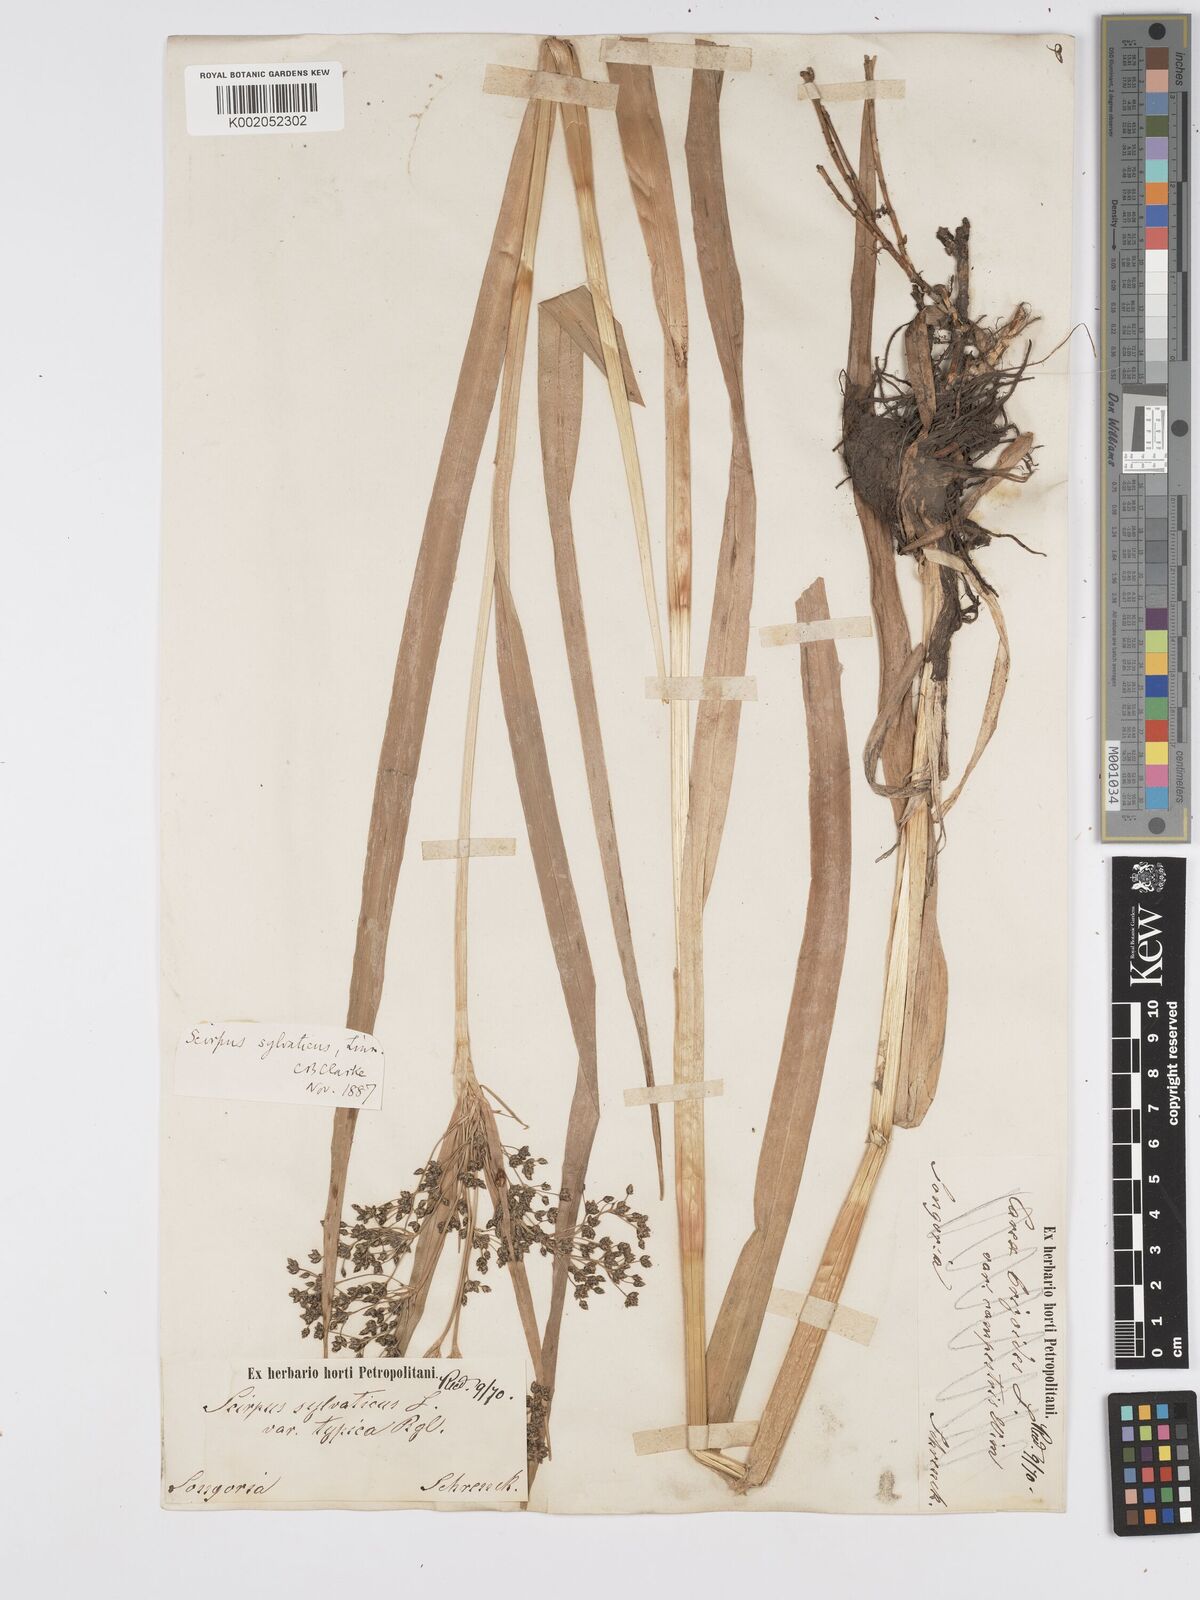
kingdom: Plantae
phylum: Tracheophyta
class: Liliopsida
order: Poales
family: Cyperaceae
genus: Scirpus
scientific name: Scirpus sylvaticus
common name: Wood club-rush
